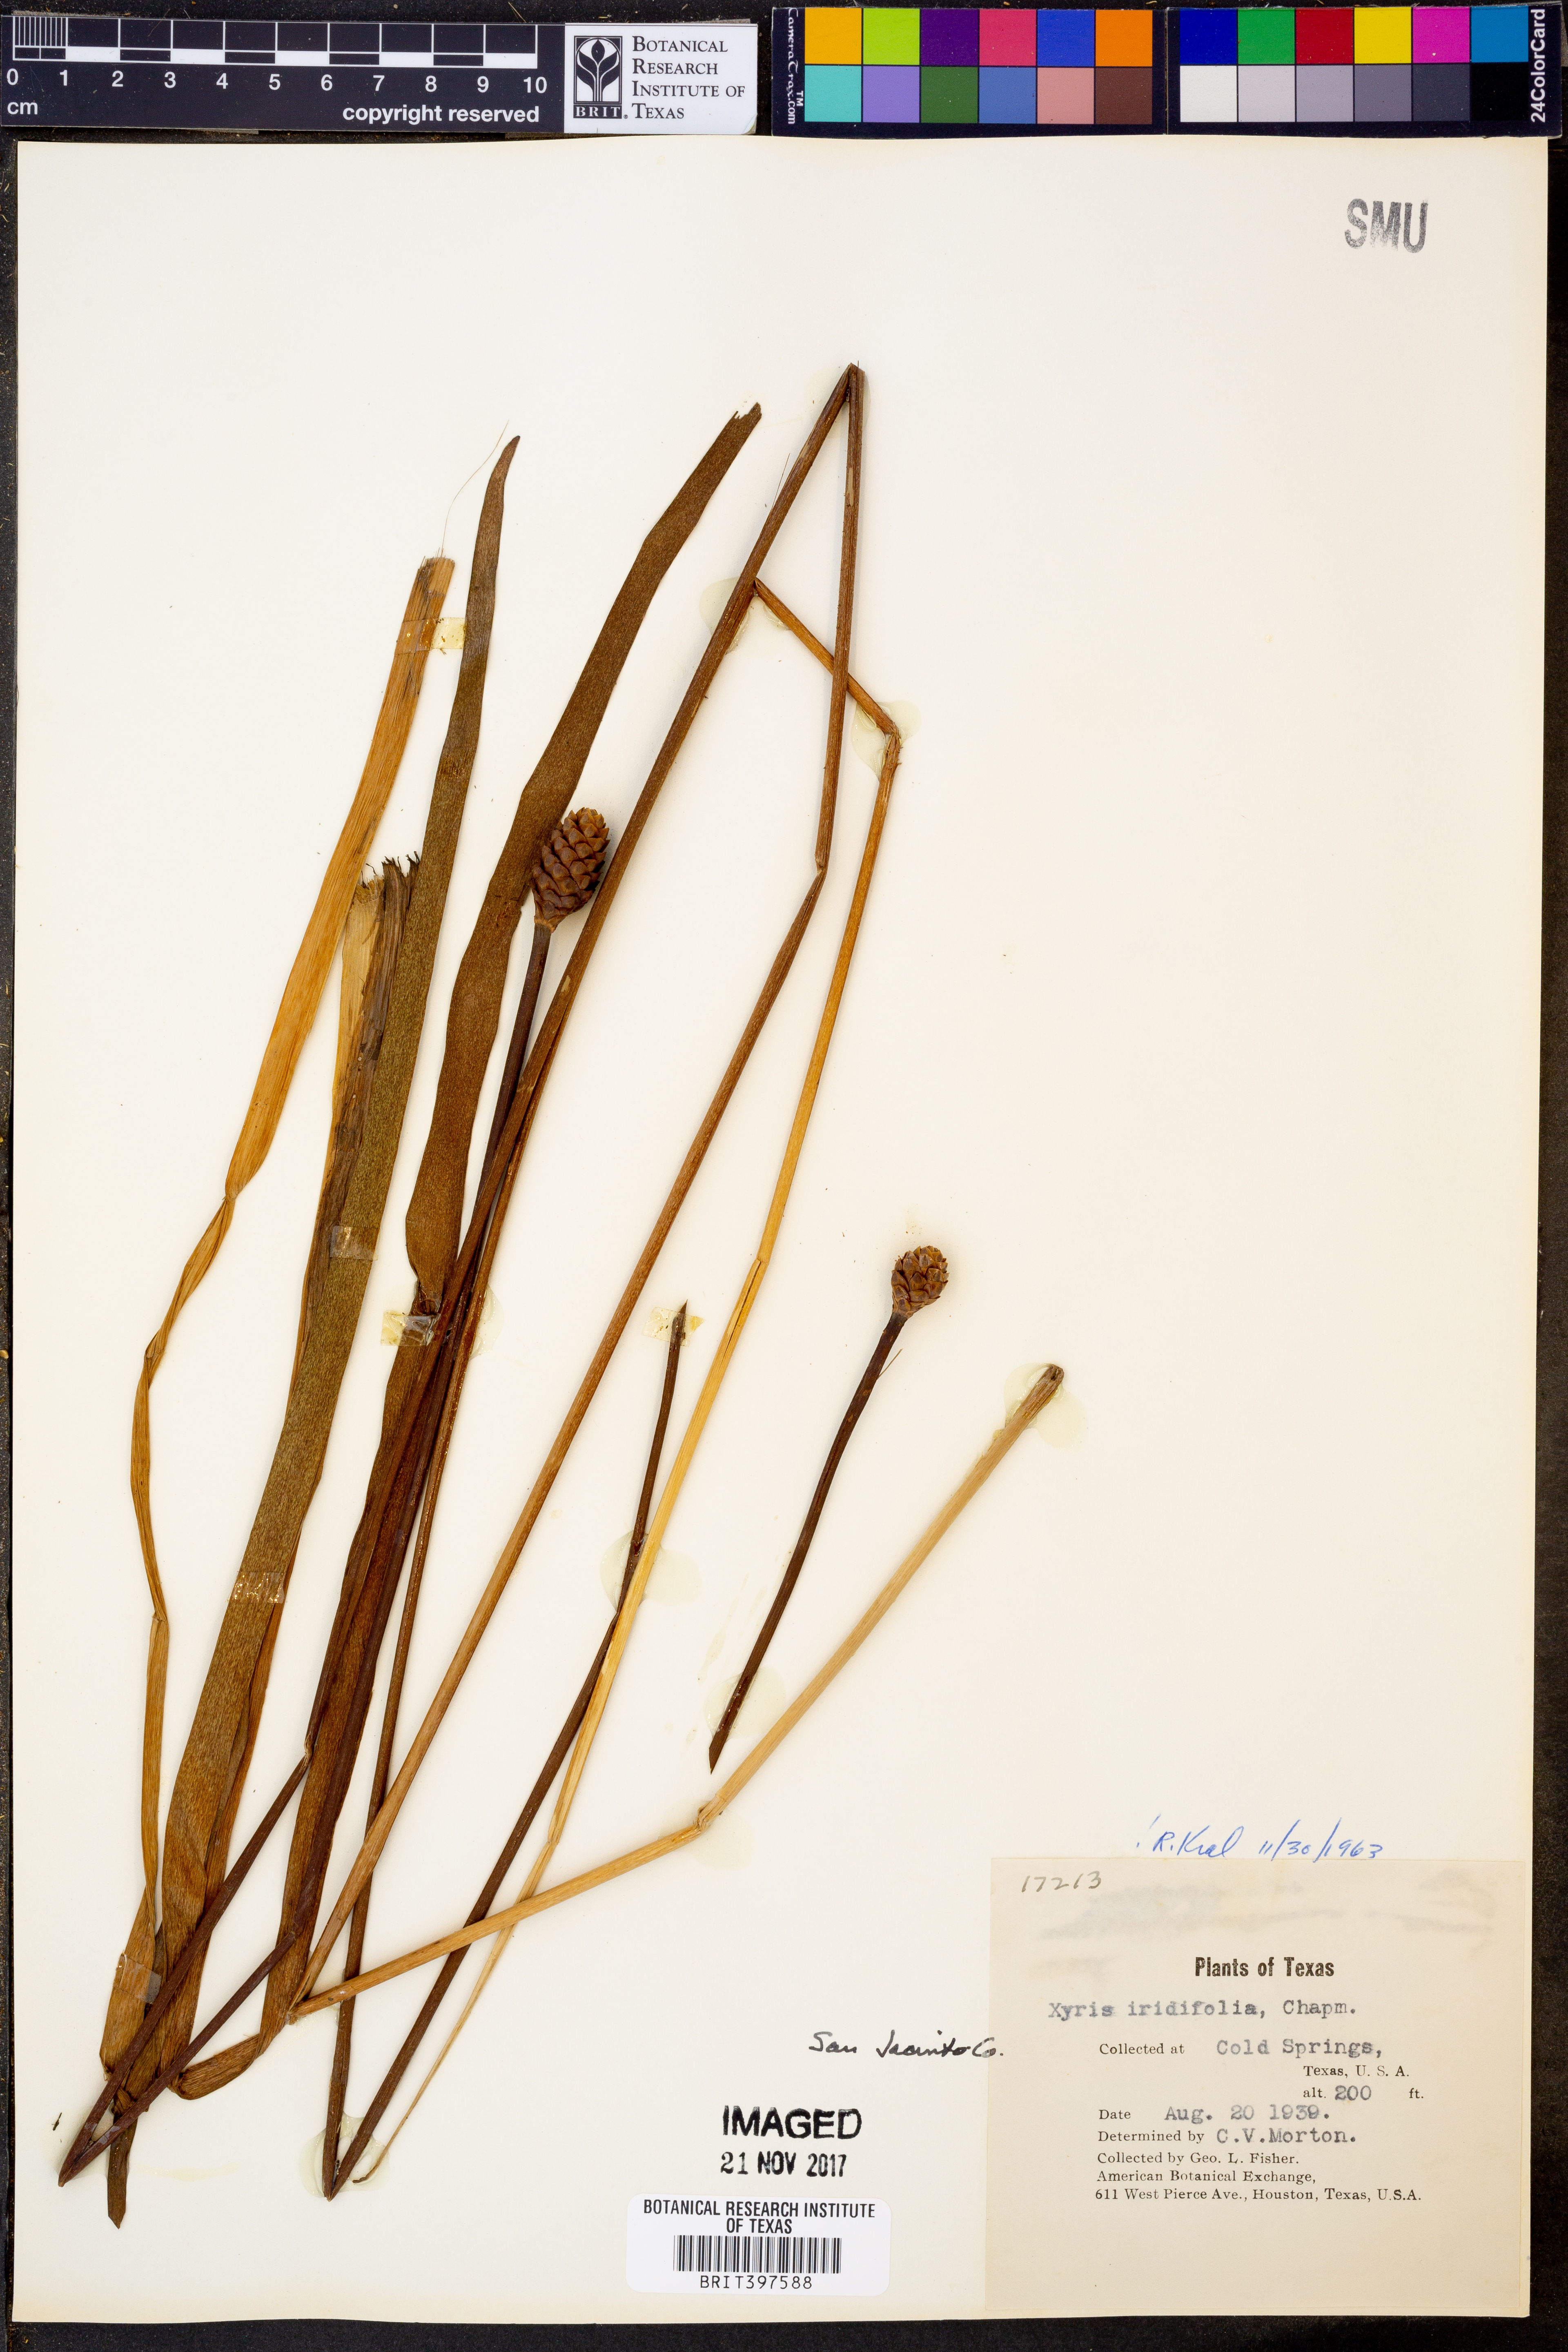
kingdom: Plantae
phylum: Tracheophyta
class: Liliopsida
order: Poales
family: Xyridaceae
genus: Xyris
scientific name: Xyris laxifolia
